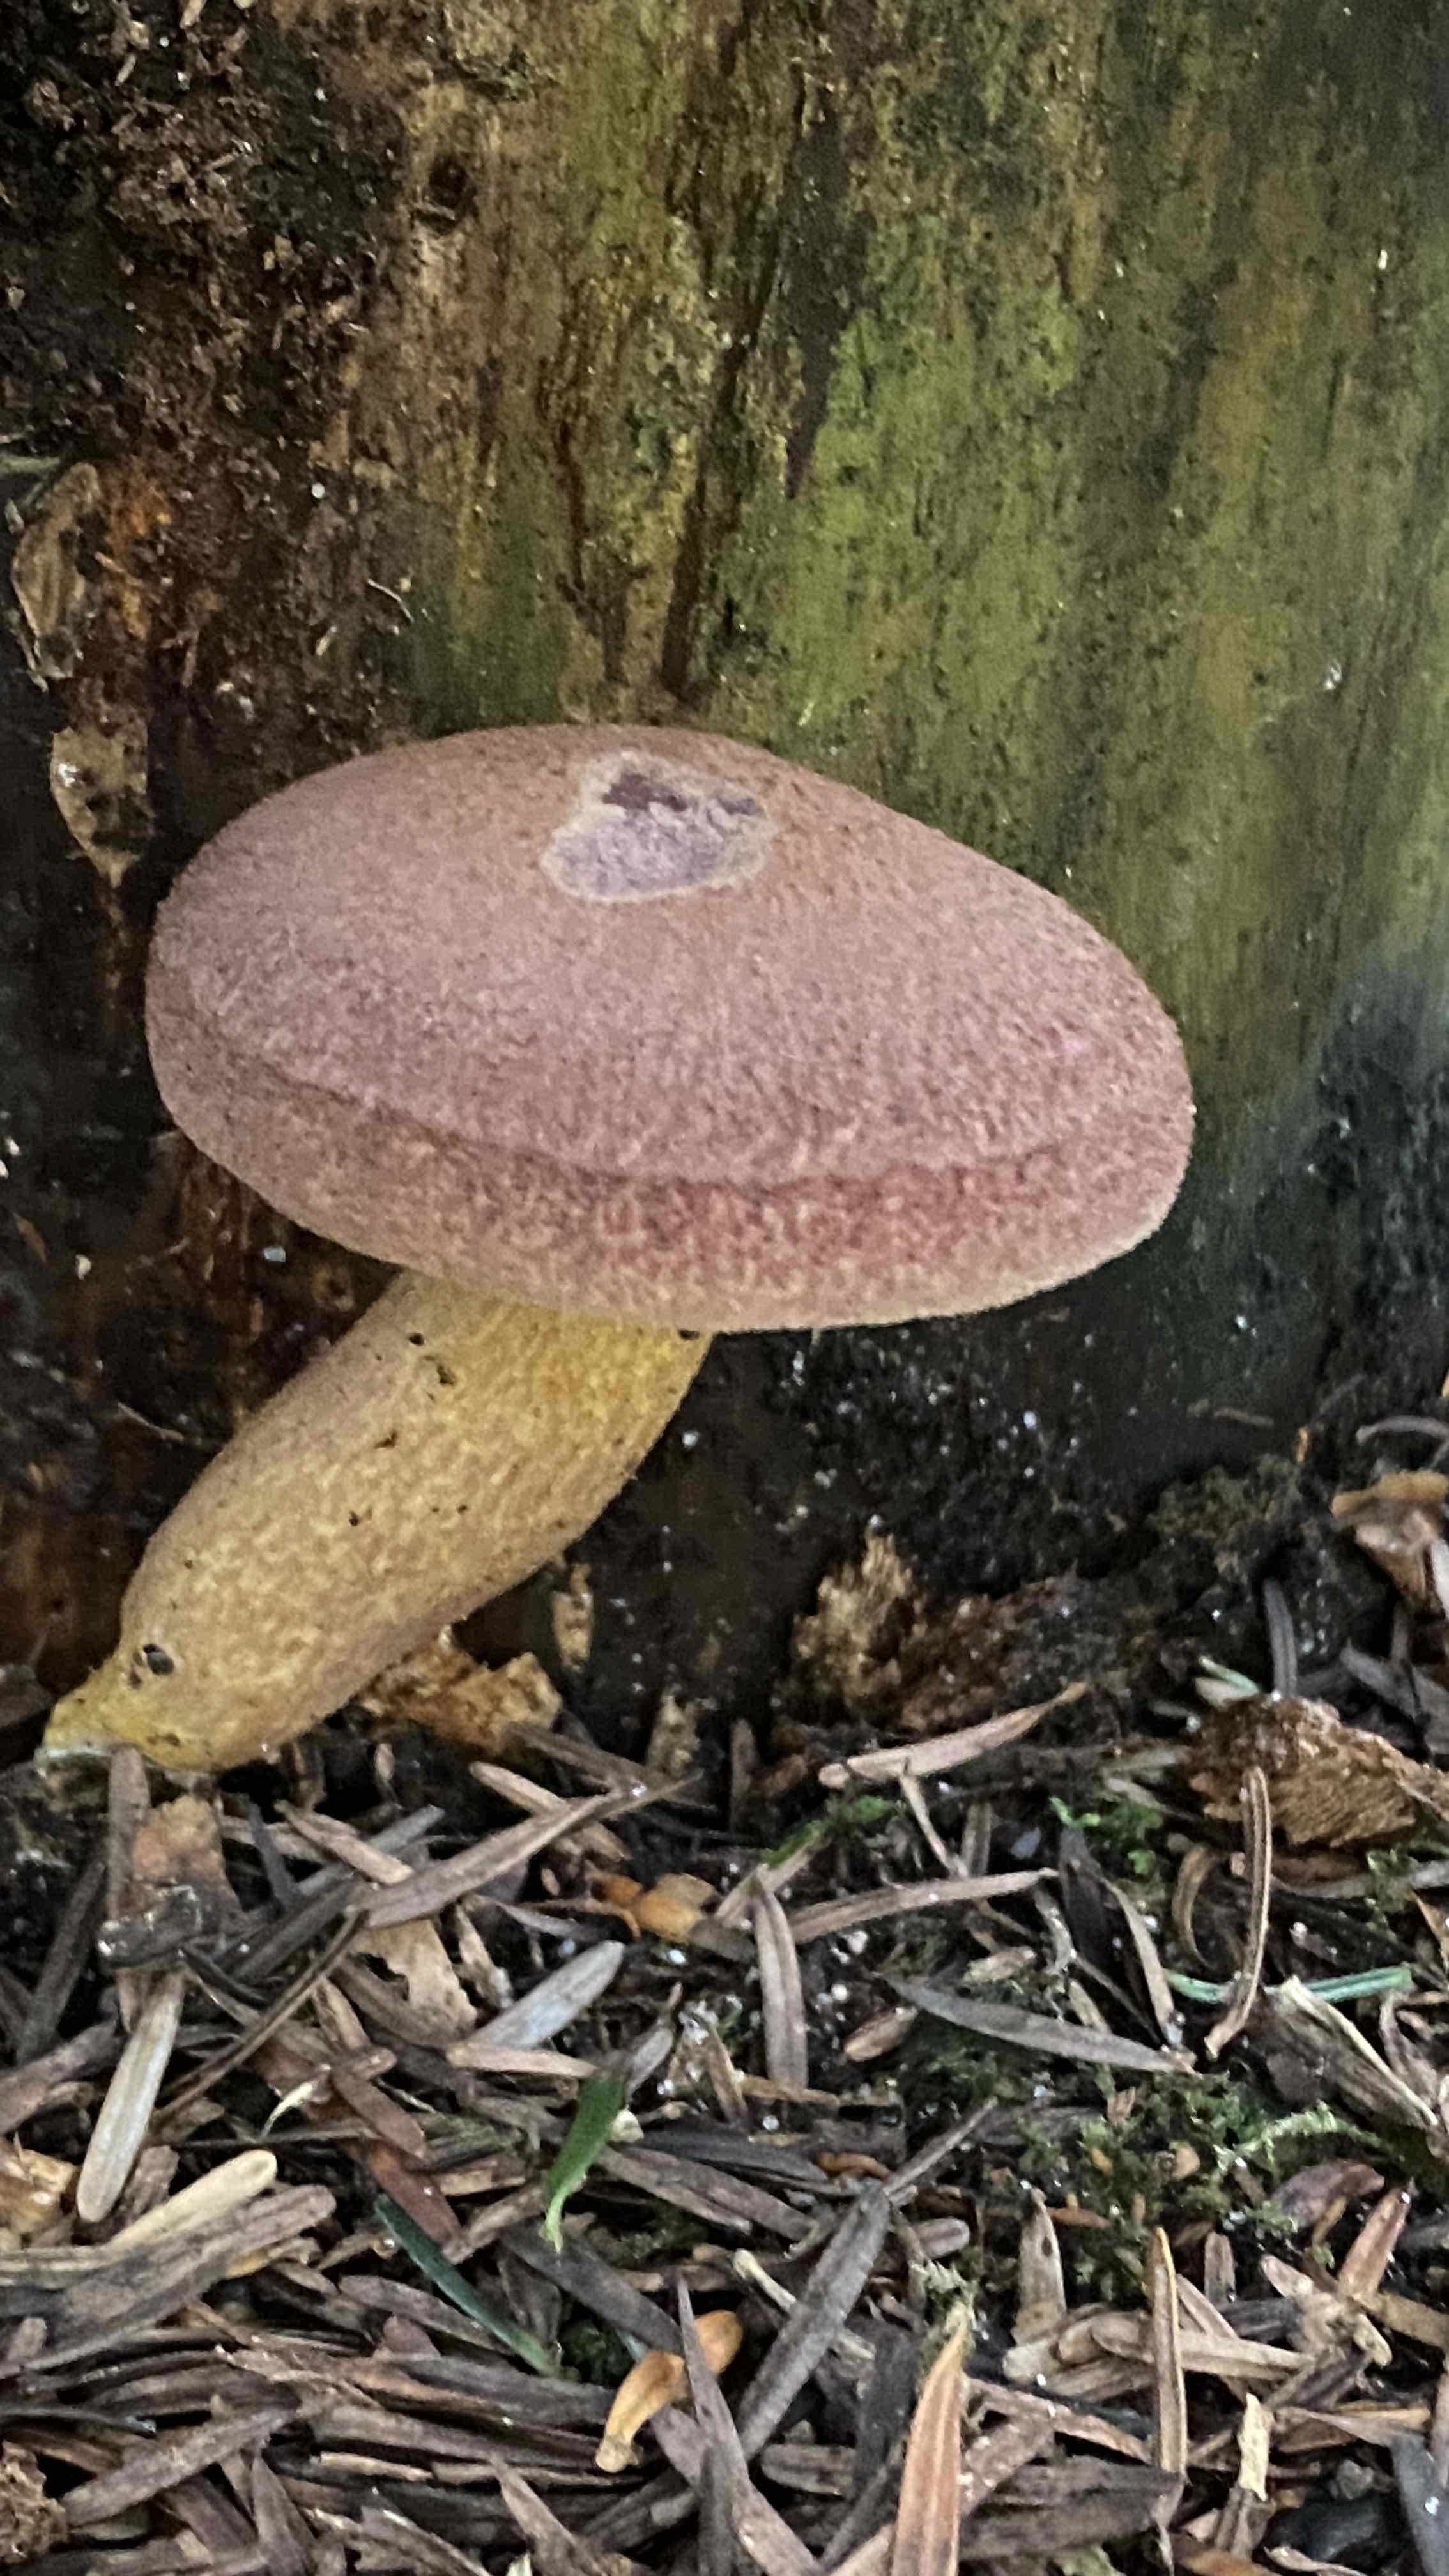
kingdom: Fungi
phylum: Basidiomycota
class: Agaricomycetes
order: Agaricales
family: Tricholomataceae
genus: Tricholomopsis
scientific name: Tricholomopsis rutilans
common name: purpur-væbnerhat
